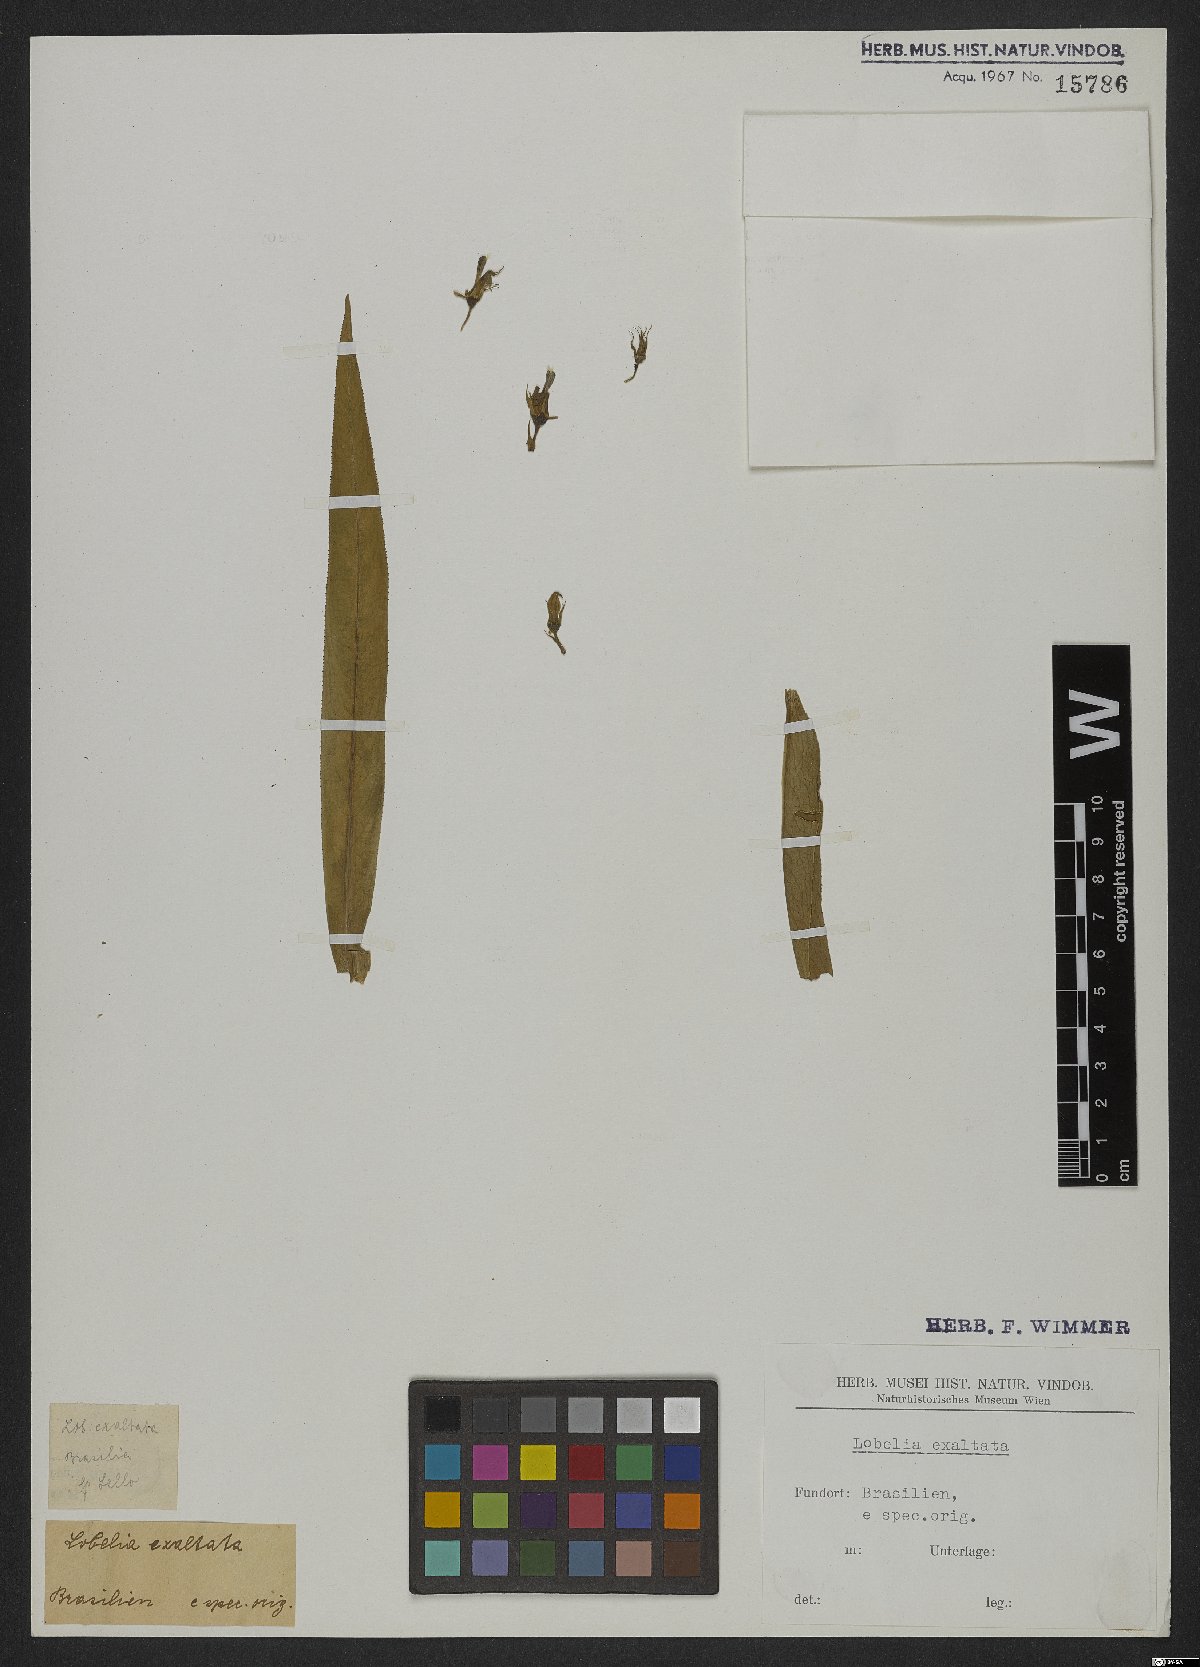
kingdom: Plantae
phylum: Tracheophyta
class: Magnoliopsida
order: Asterales
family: Campanulaceae
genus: Lobelia
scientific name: Lobelia exaltata
